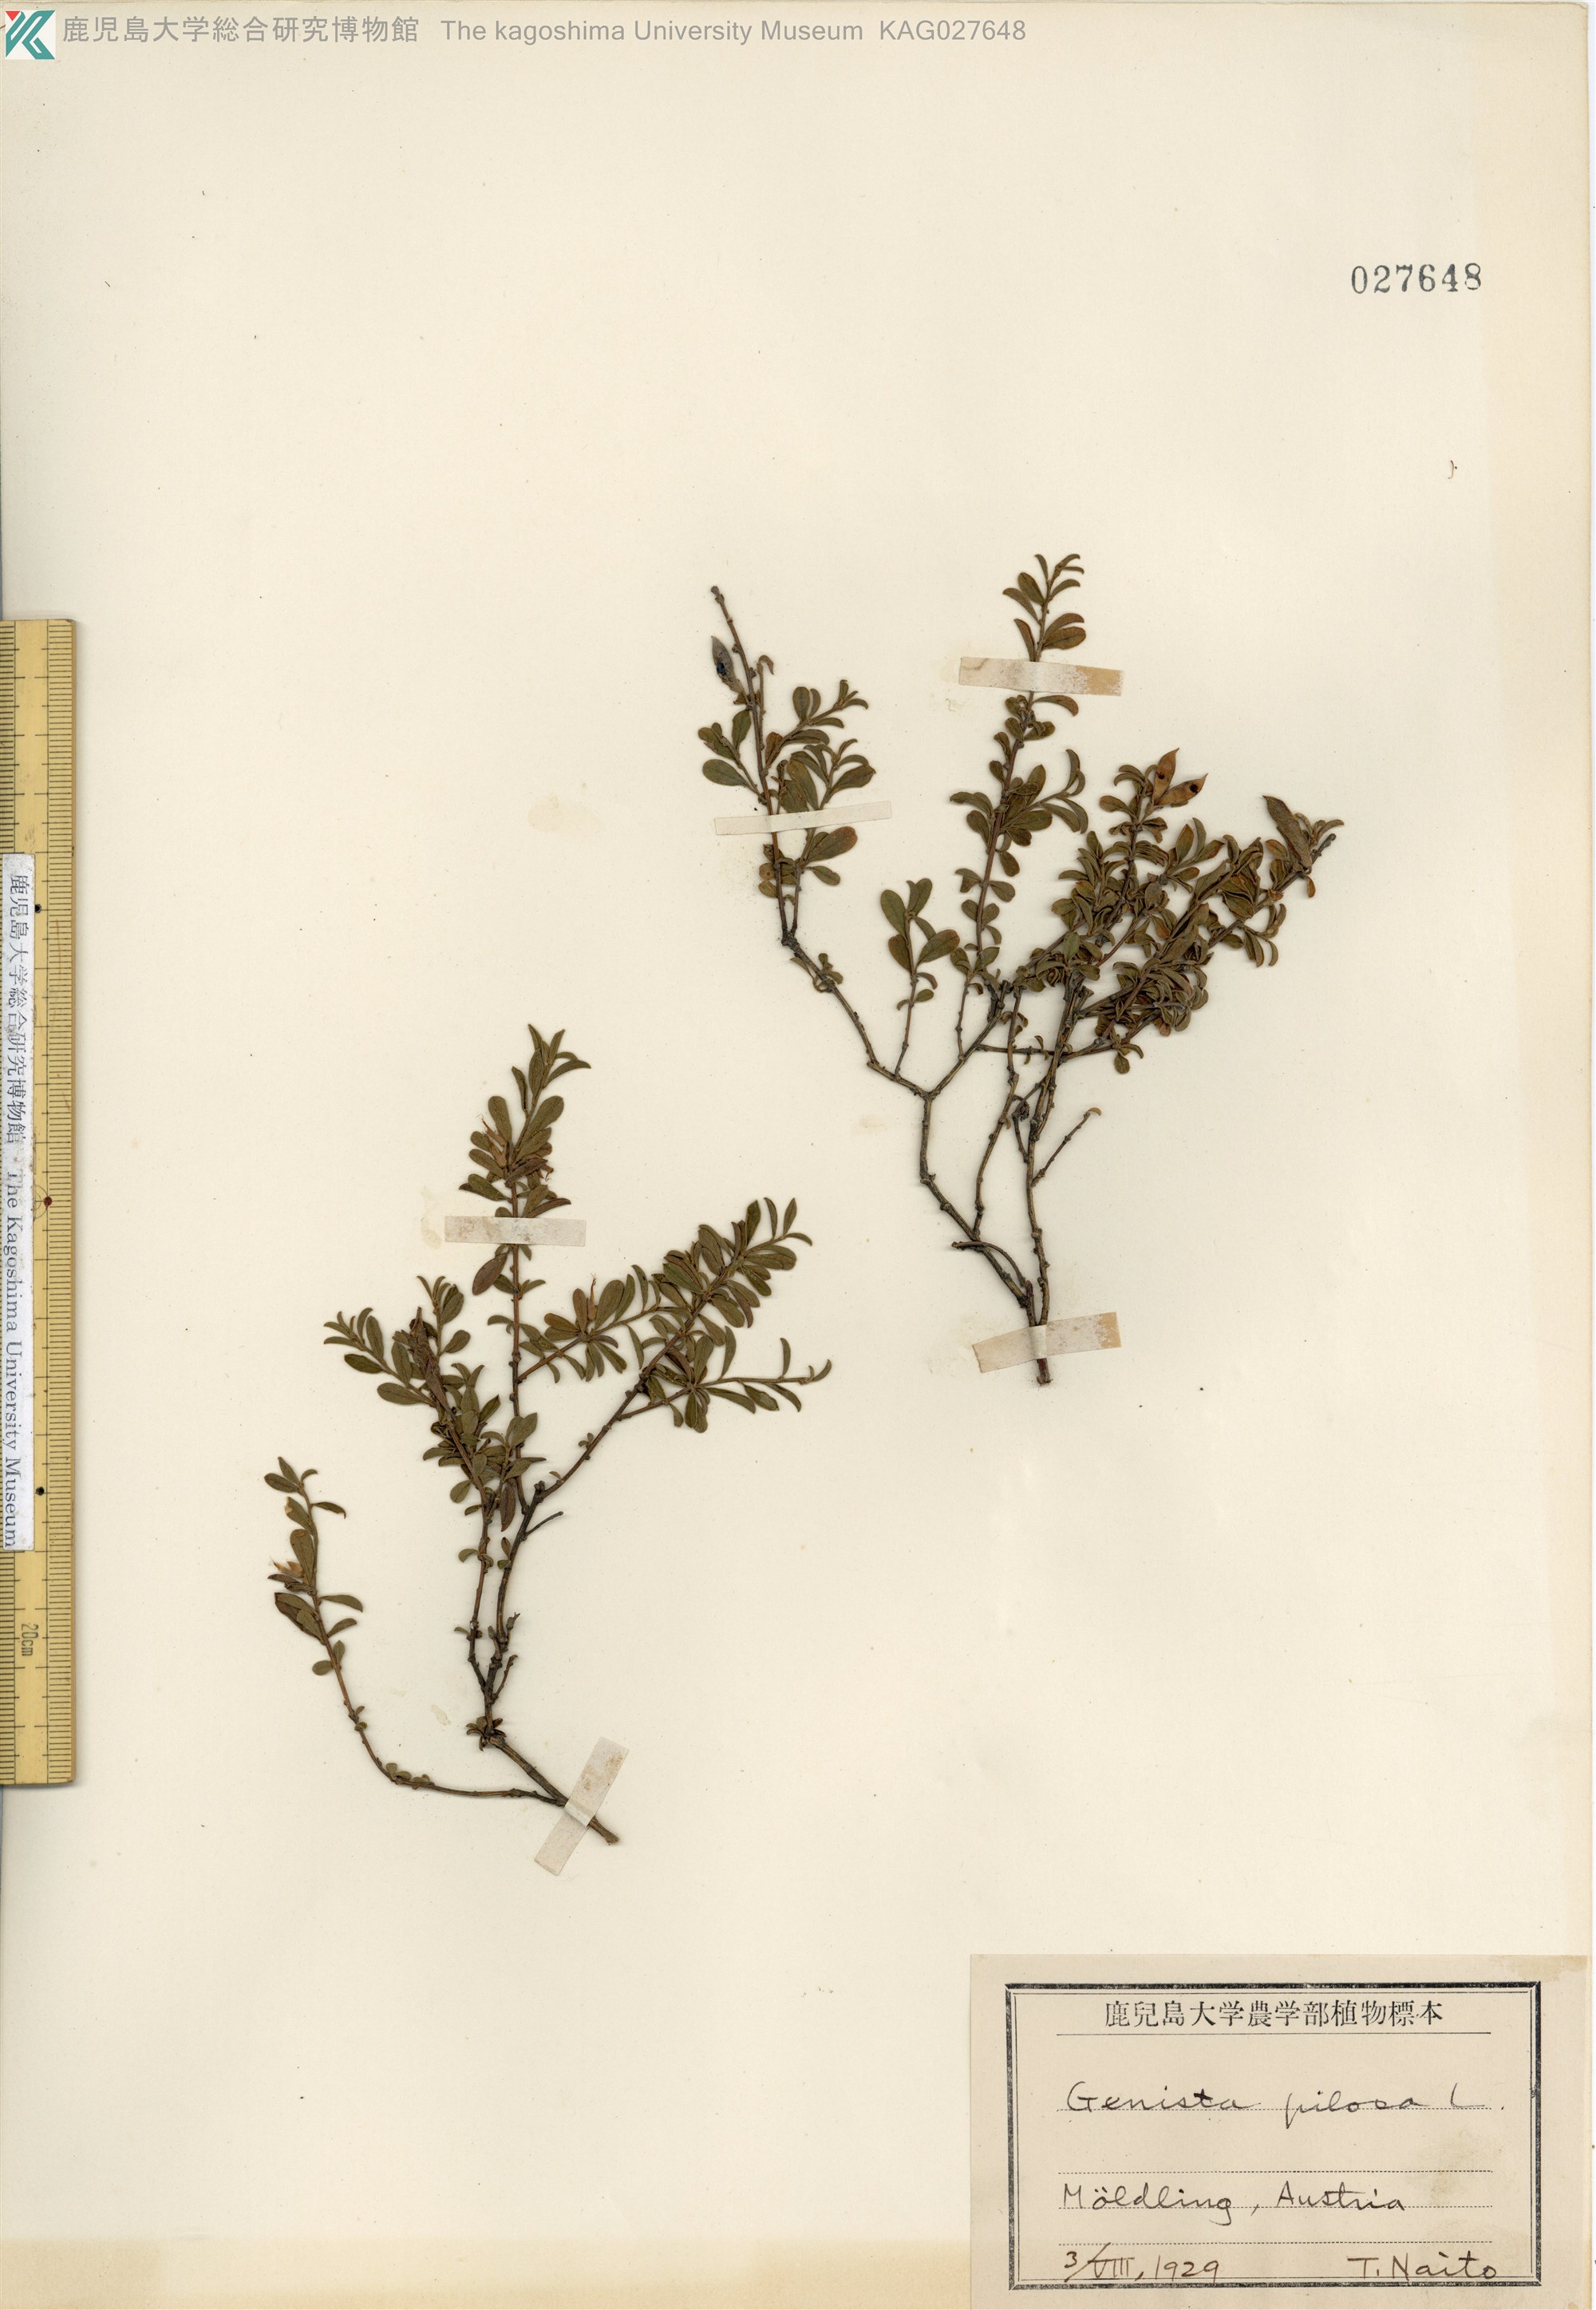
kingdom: Plantae
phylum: Tracheophyta
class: Magnoliopsida
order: Fabales
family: Fabaceae
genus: Genista
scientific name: Genista pilosa
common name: Hairy greenweed
